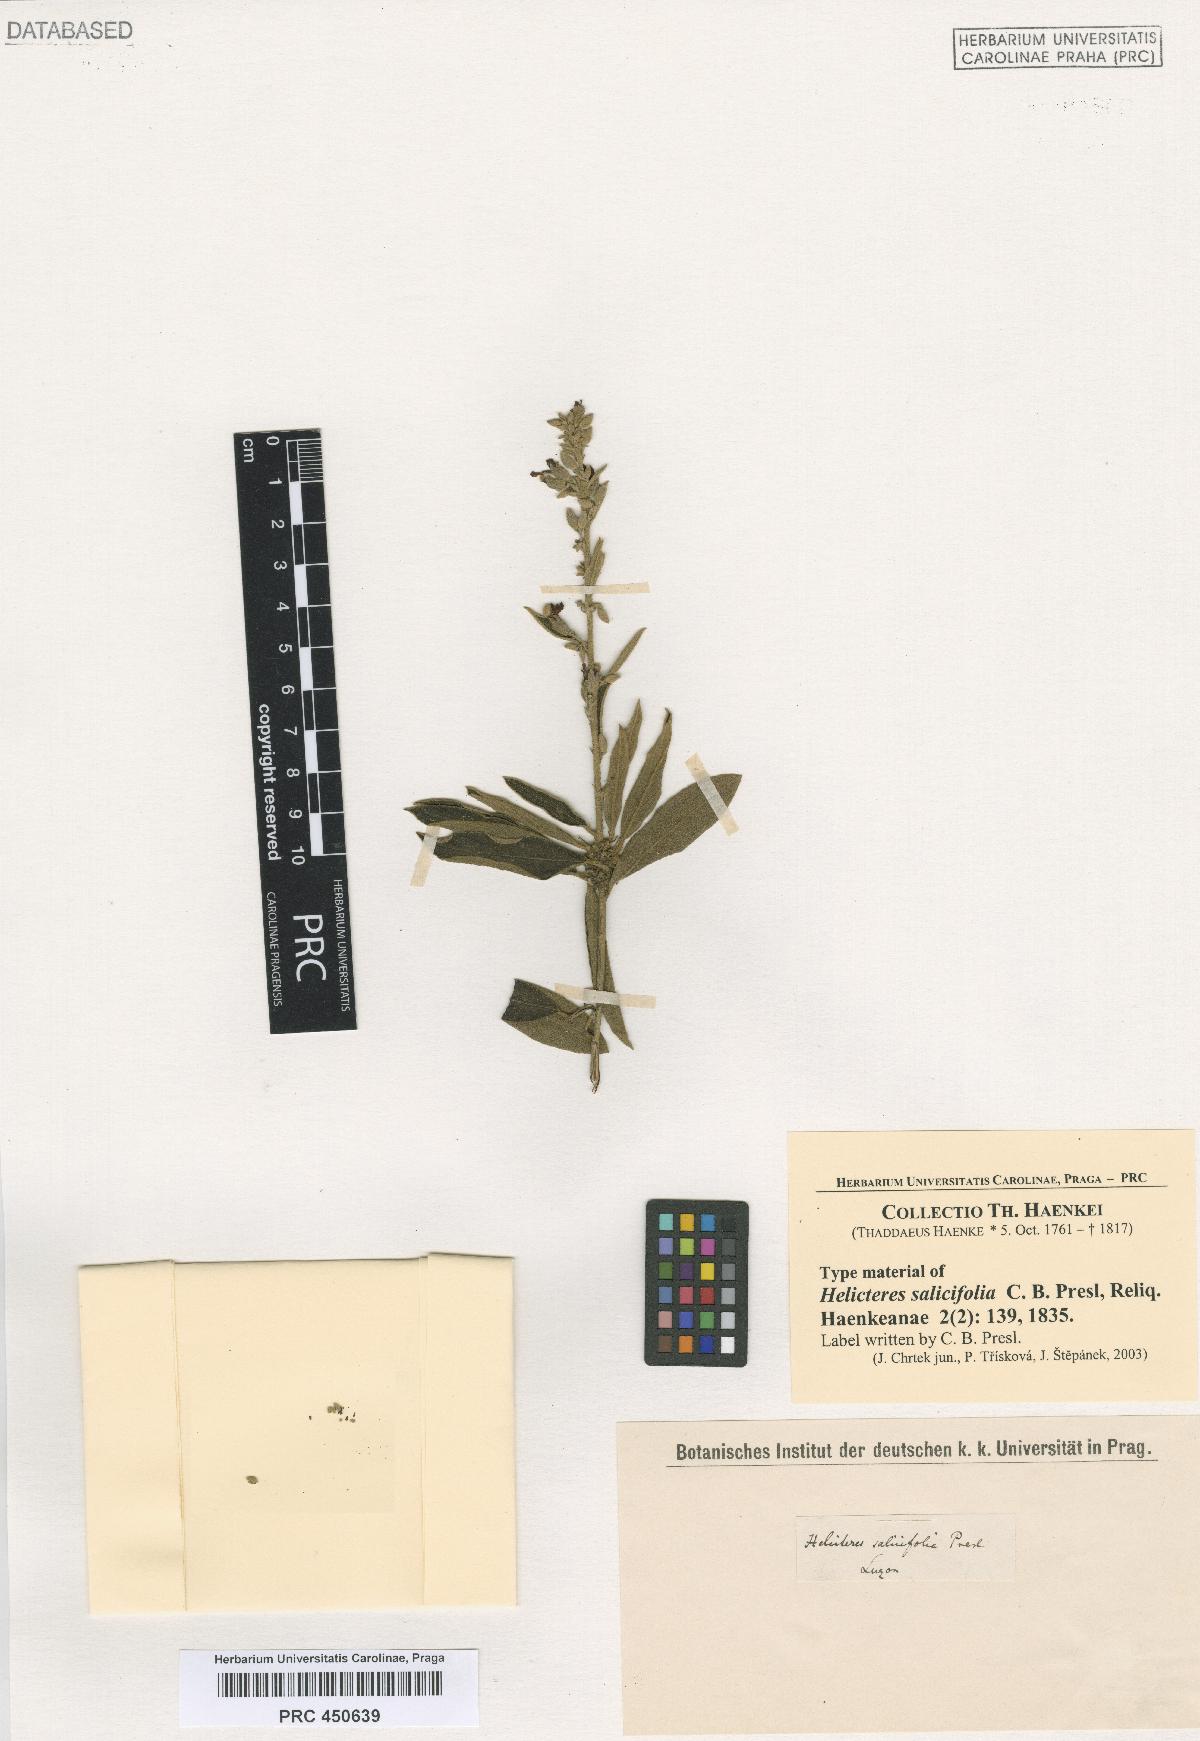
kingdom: Plantae
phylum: Tracheophyta
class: Magnoliopsida
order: Malvales
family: Malvaceae
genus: Helicteres
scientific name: Helicteres angustifolia
